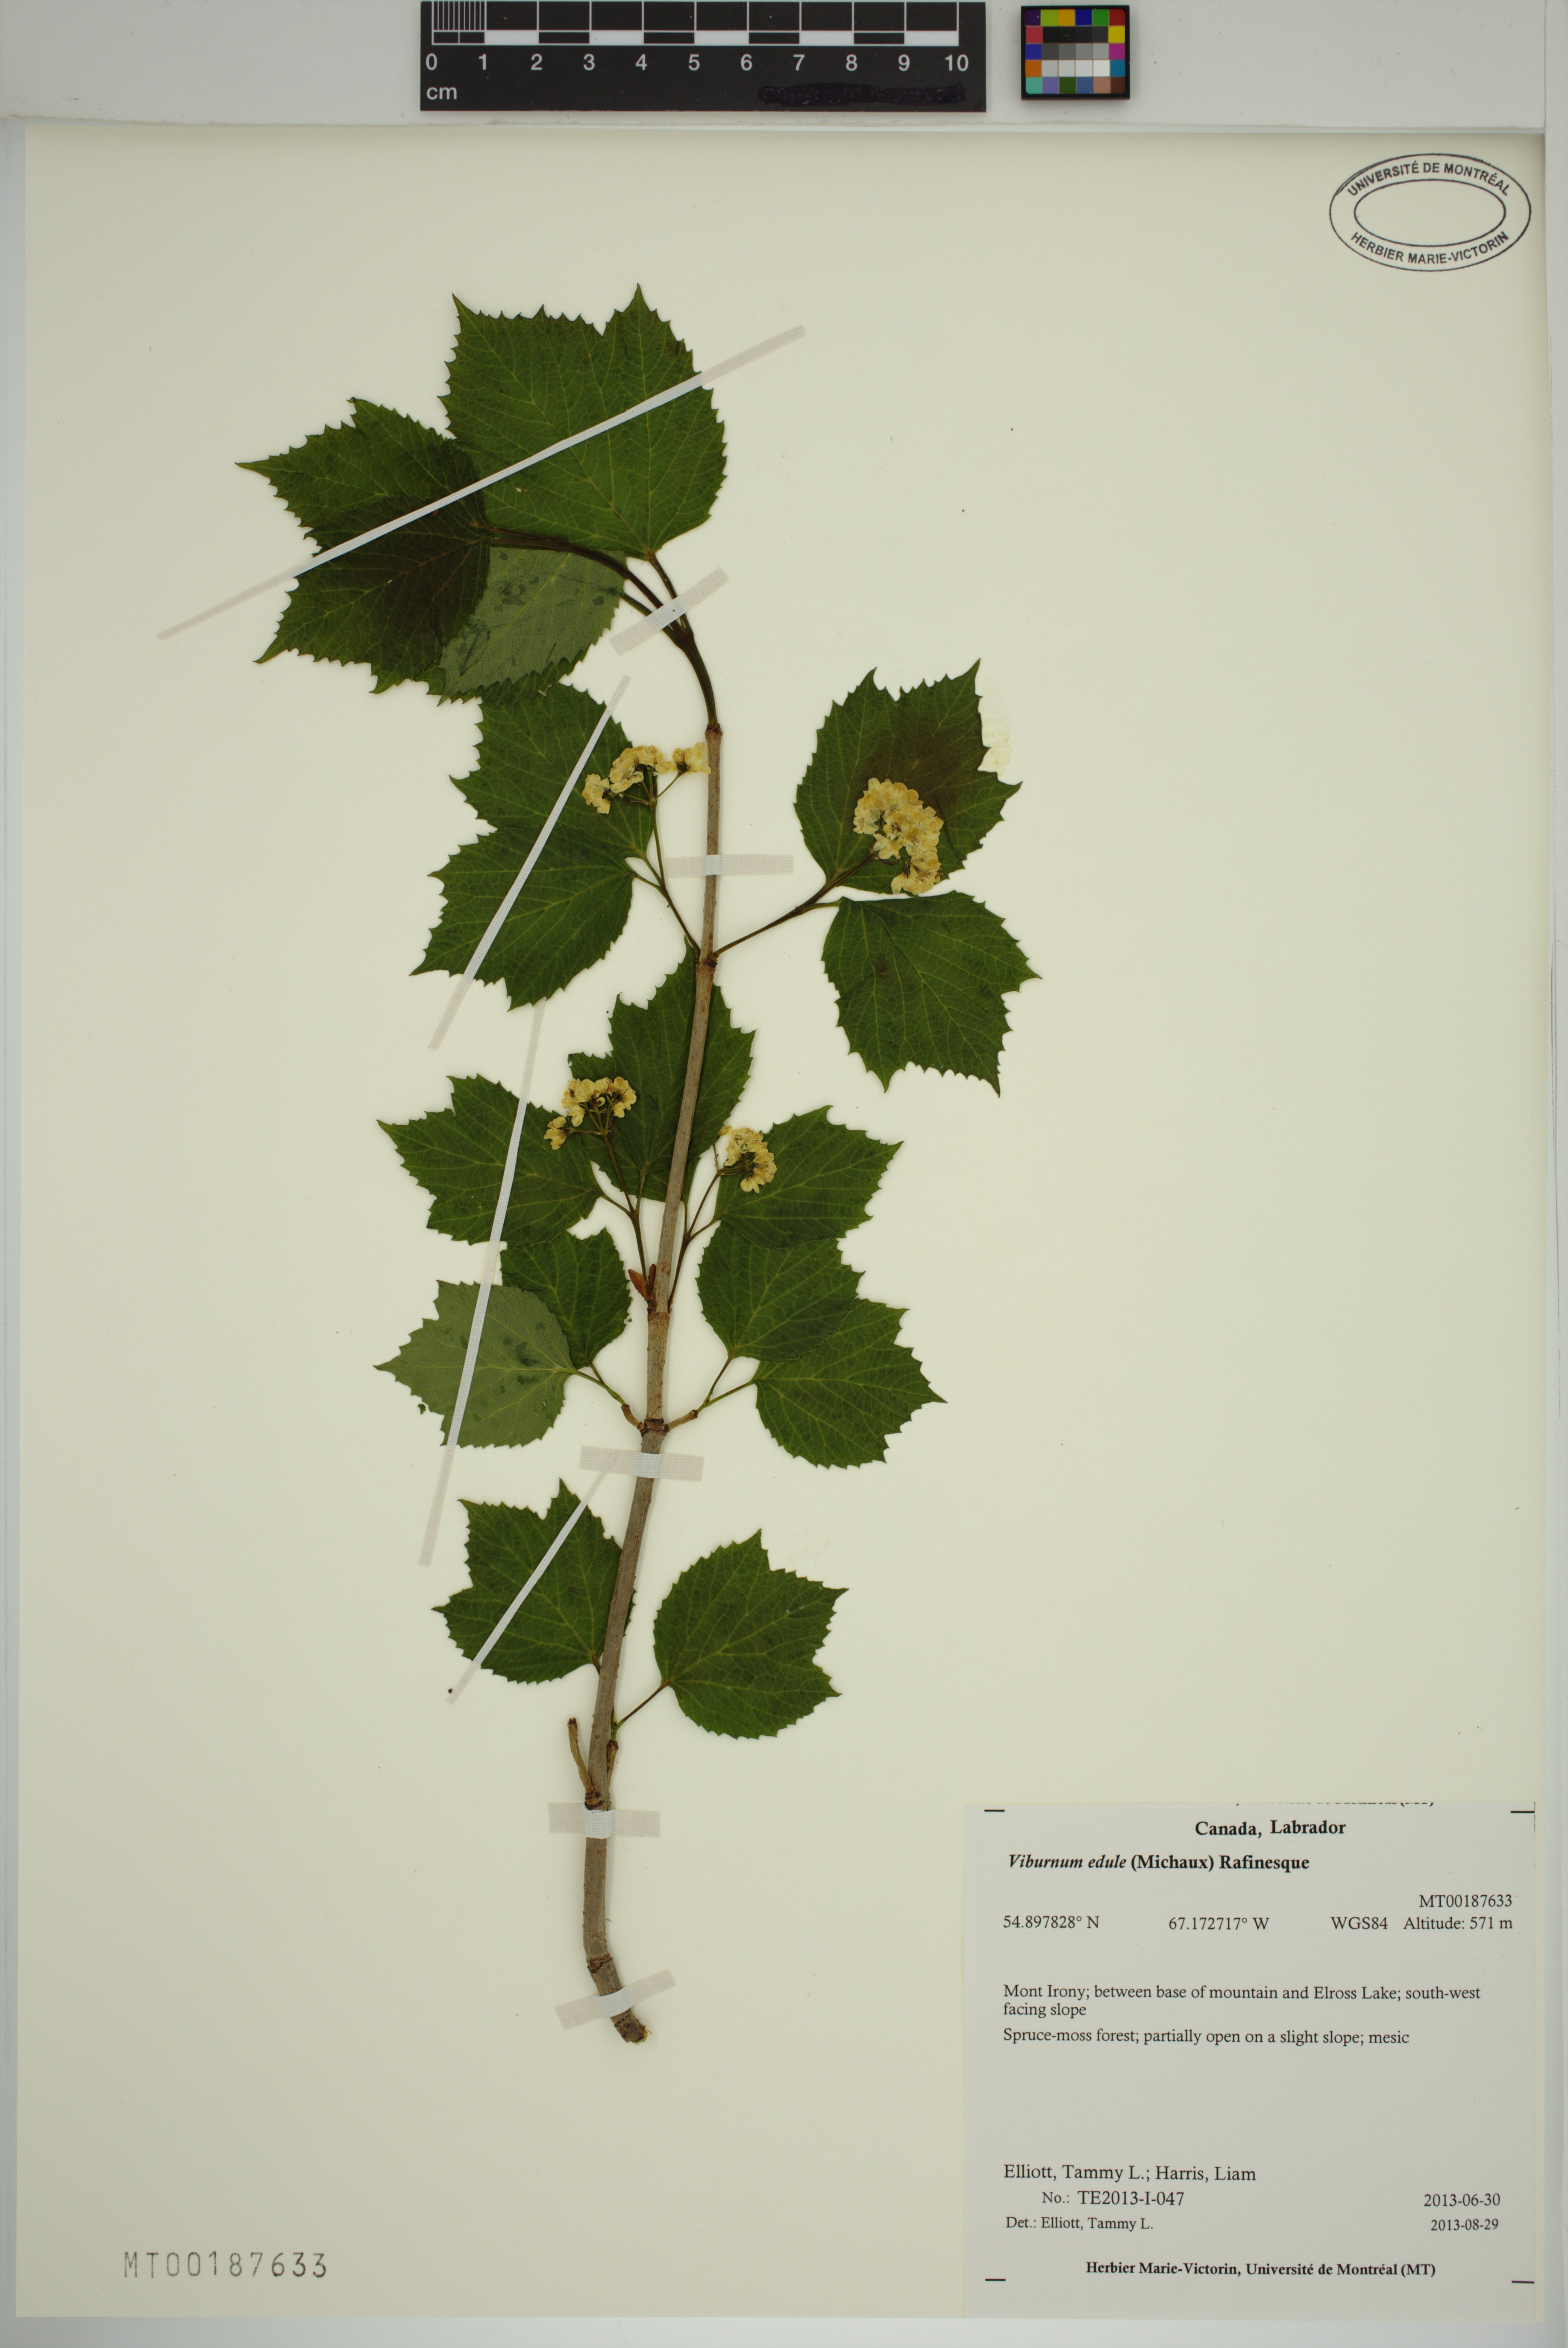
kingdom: Plantae
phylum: Tracheophyta
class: Magnoliopsida
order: Dipsacales
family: Viburnaceae
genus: Viburnum
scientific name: Viburnum edule
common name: Mooseberry
